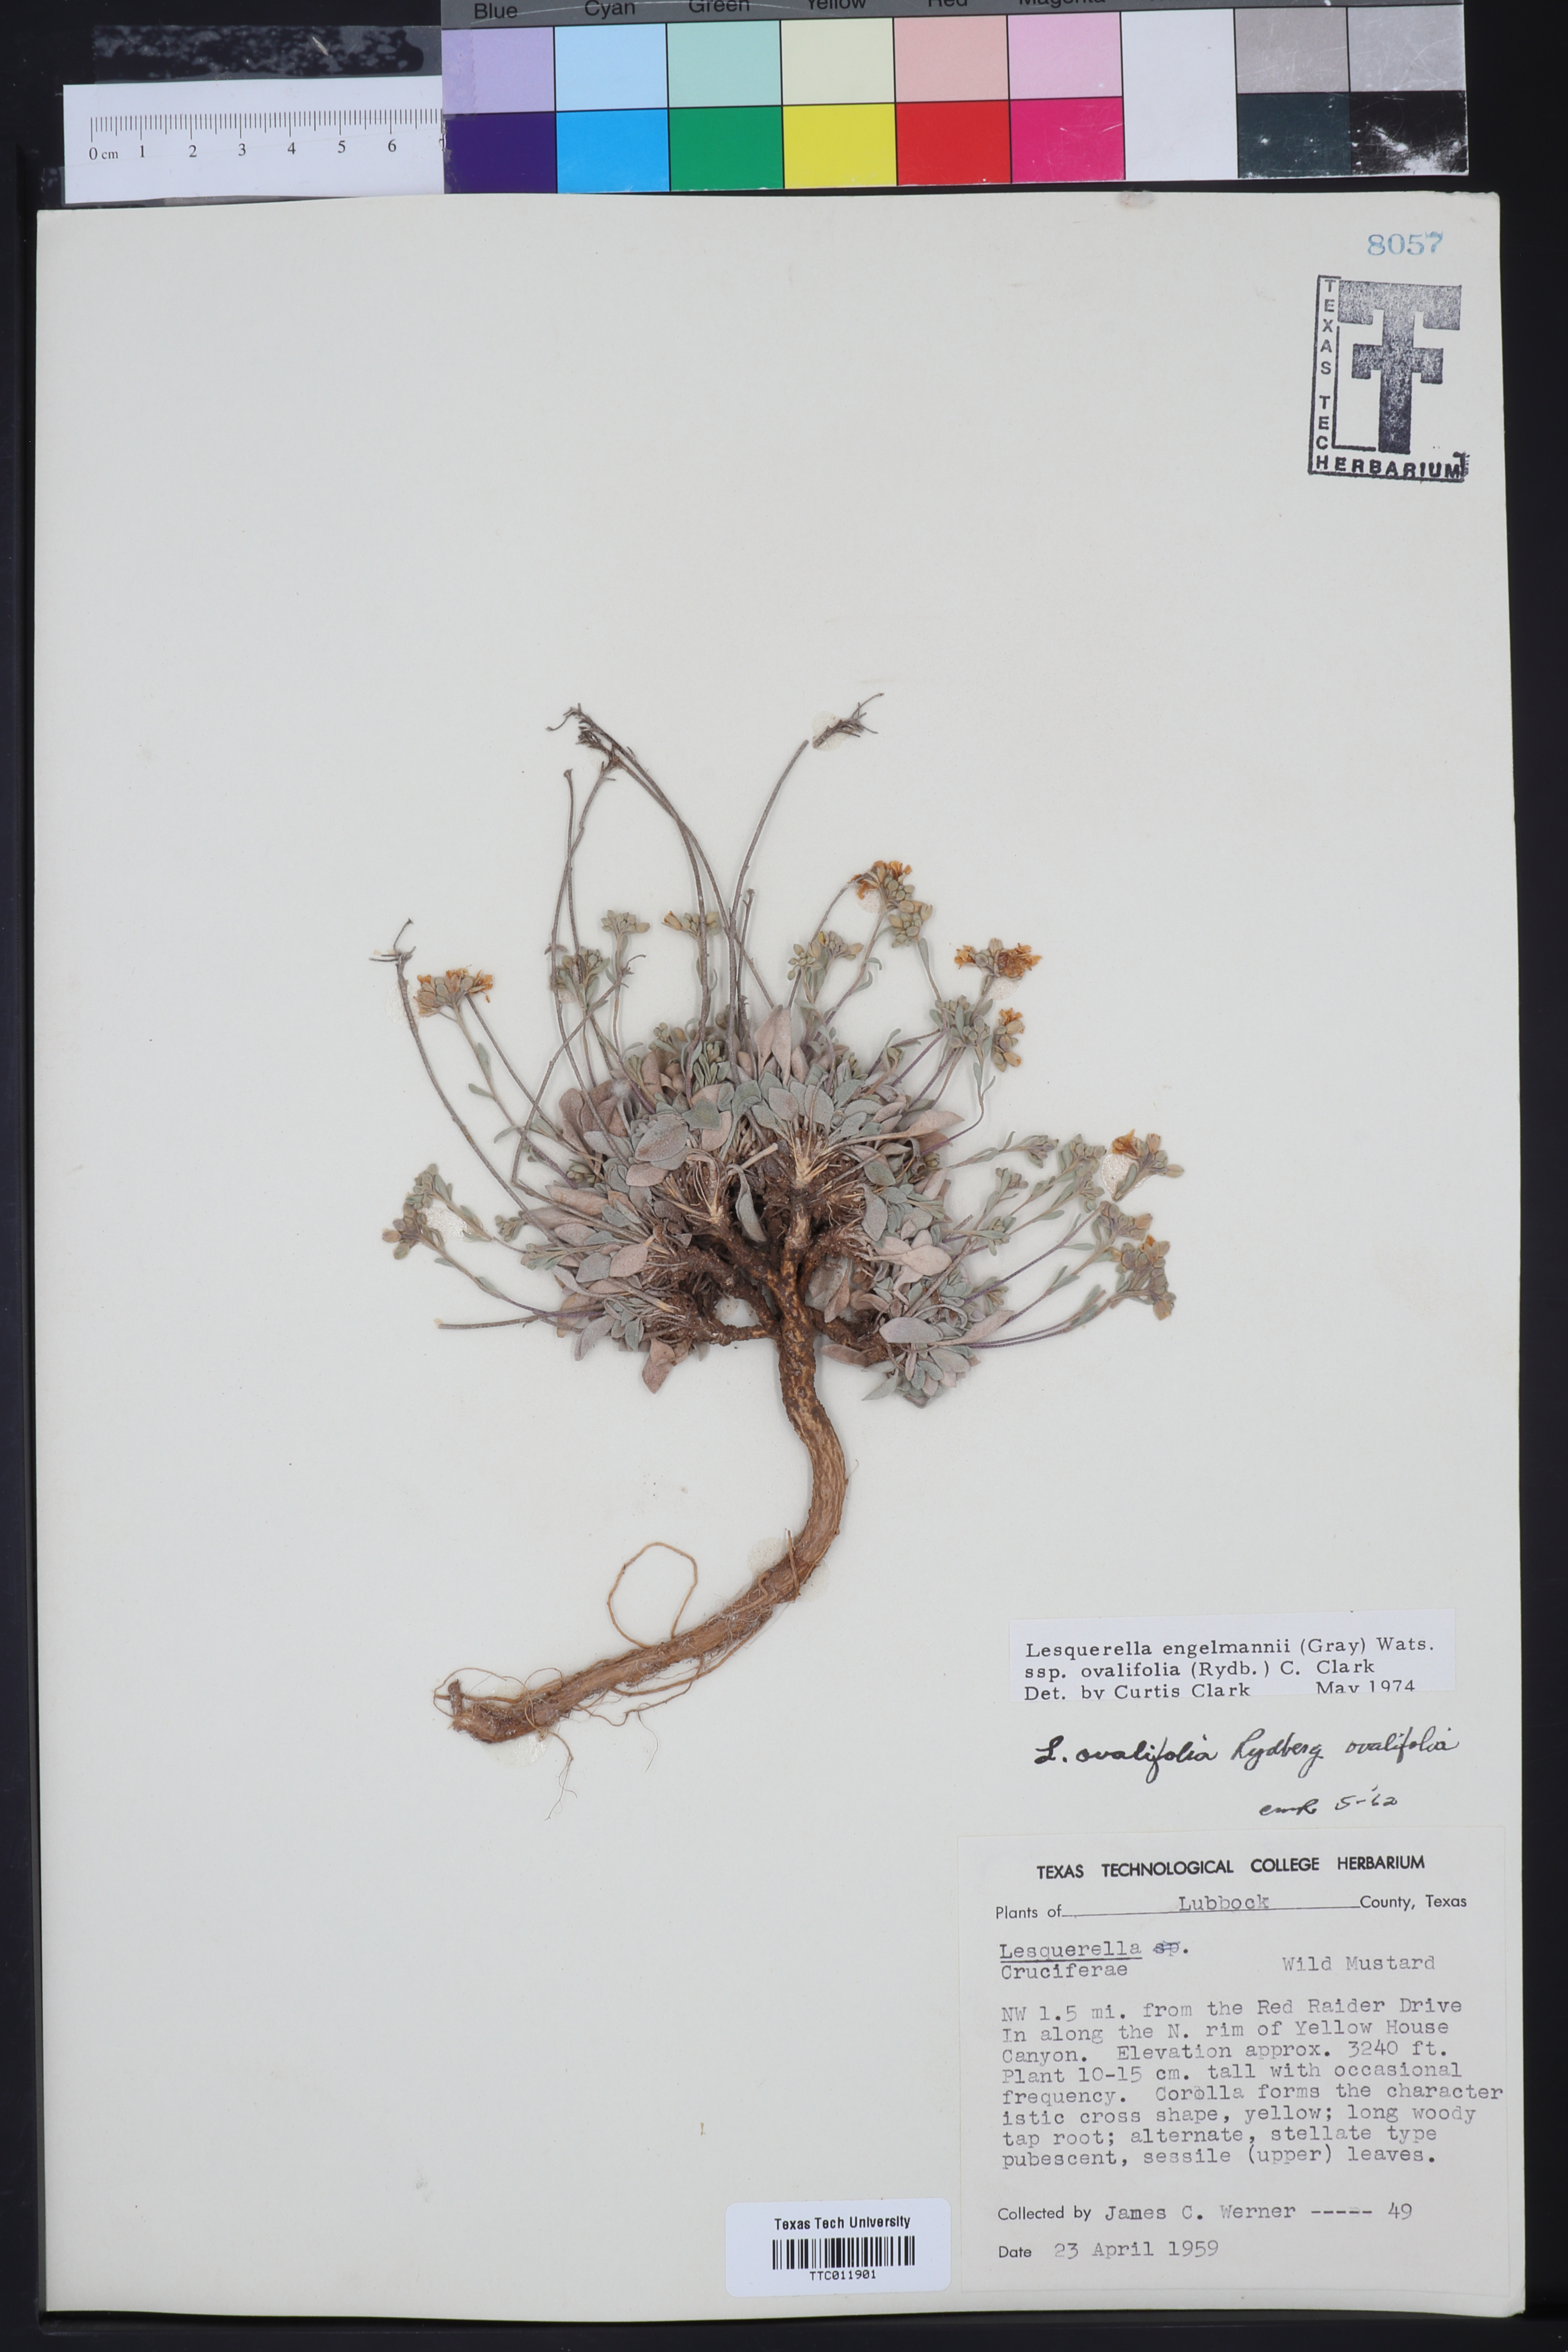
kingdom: Plantae
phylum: Tracheophyta
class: Magnoliopsida
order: Brassicales
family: Brassicaceae
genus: Physaria
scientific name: Physaria ovalifolia
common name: Round-leaf bladderpod
